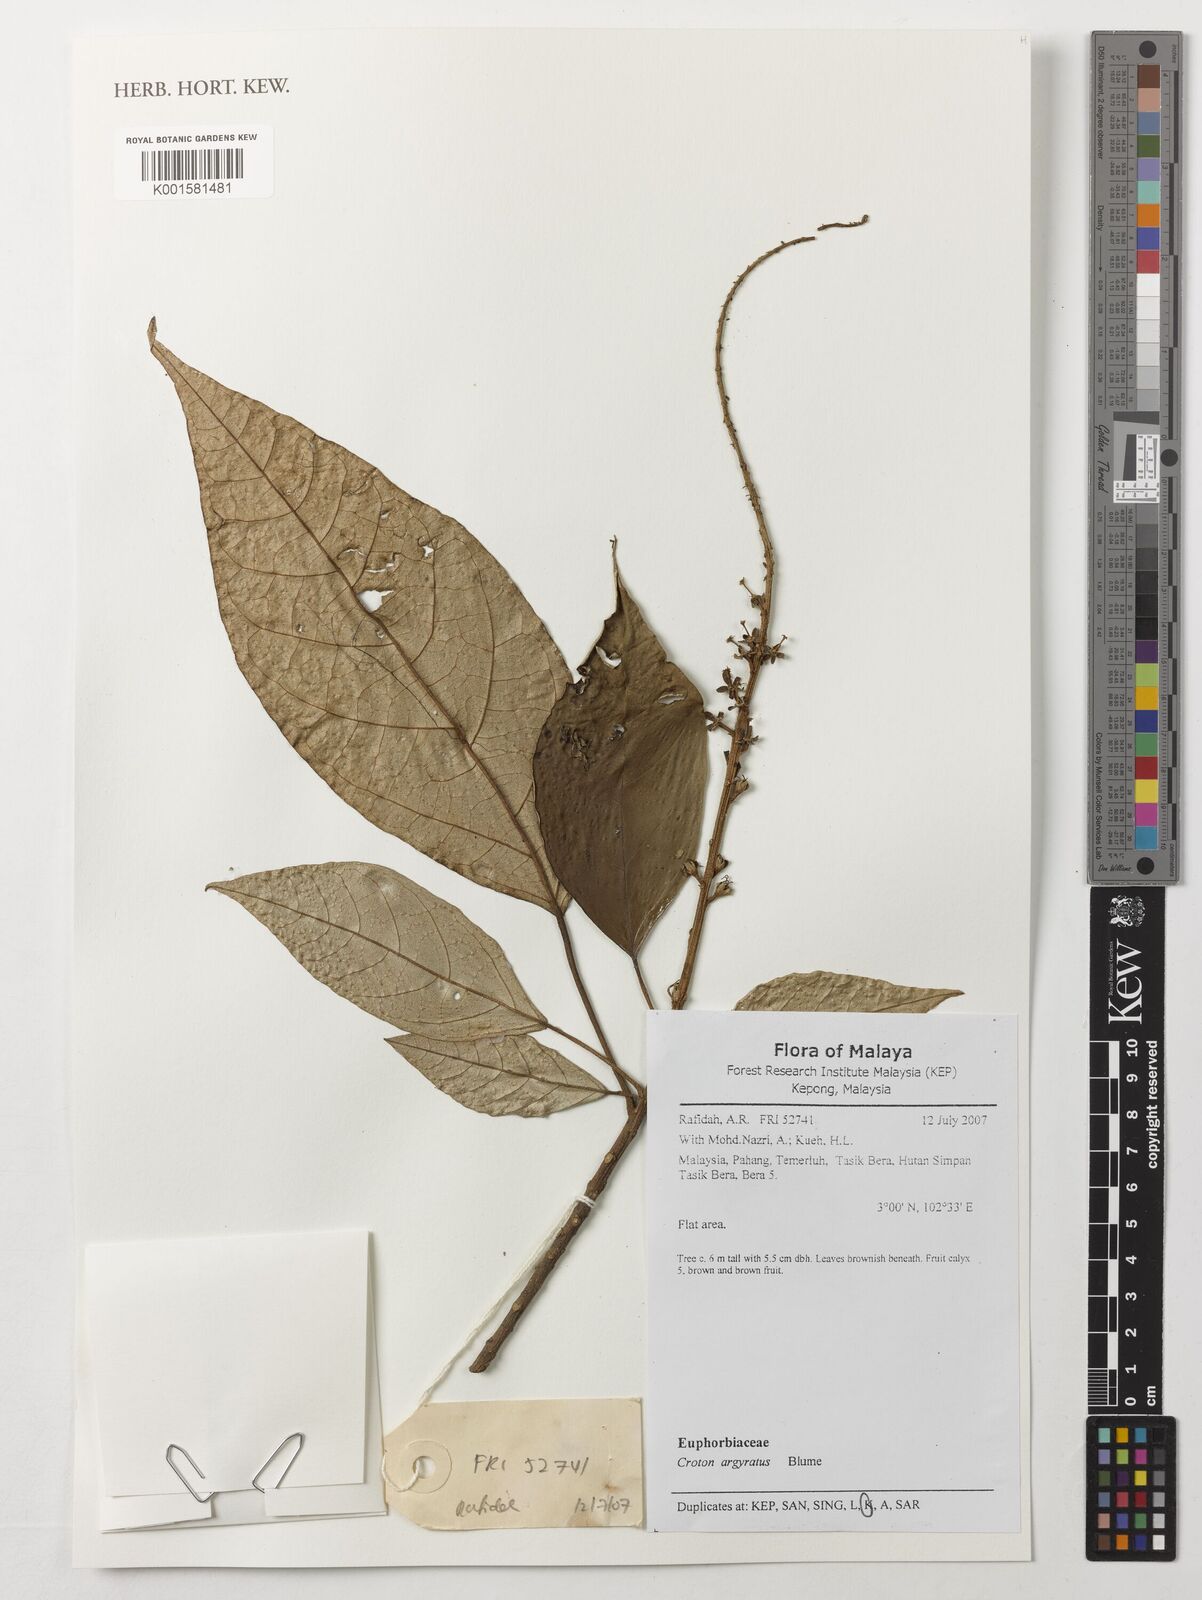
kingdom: Plantae
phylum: Tracheophyta
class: Magnoliopsida
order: Malpighiales
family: Euphorbiaceae
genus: Croton
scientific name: Croton argyratus
